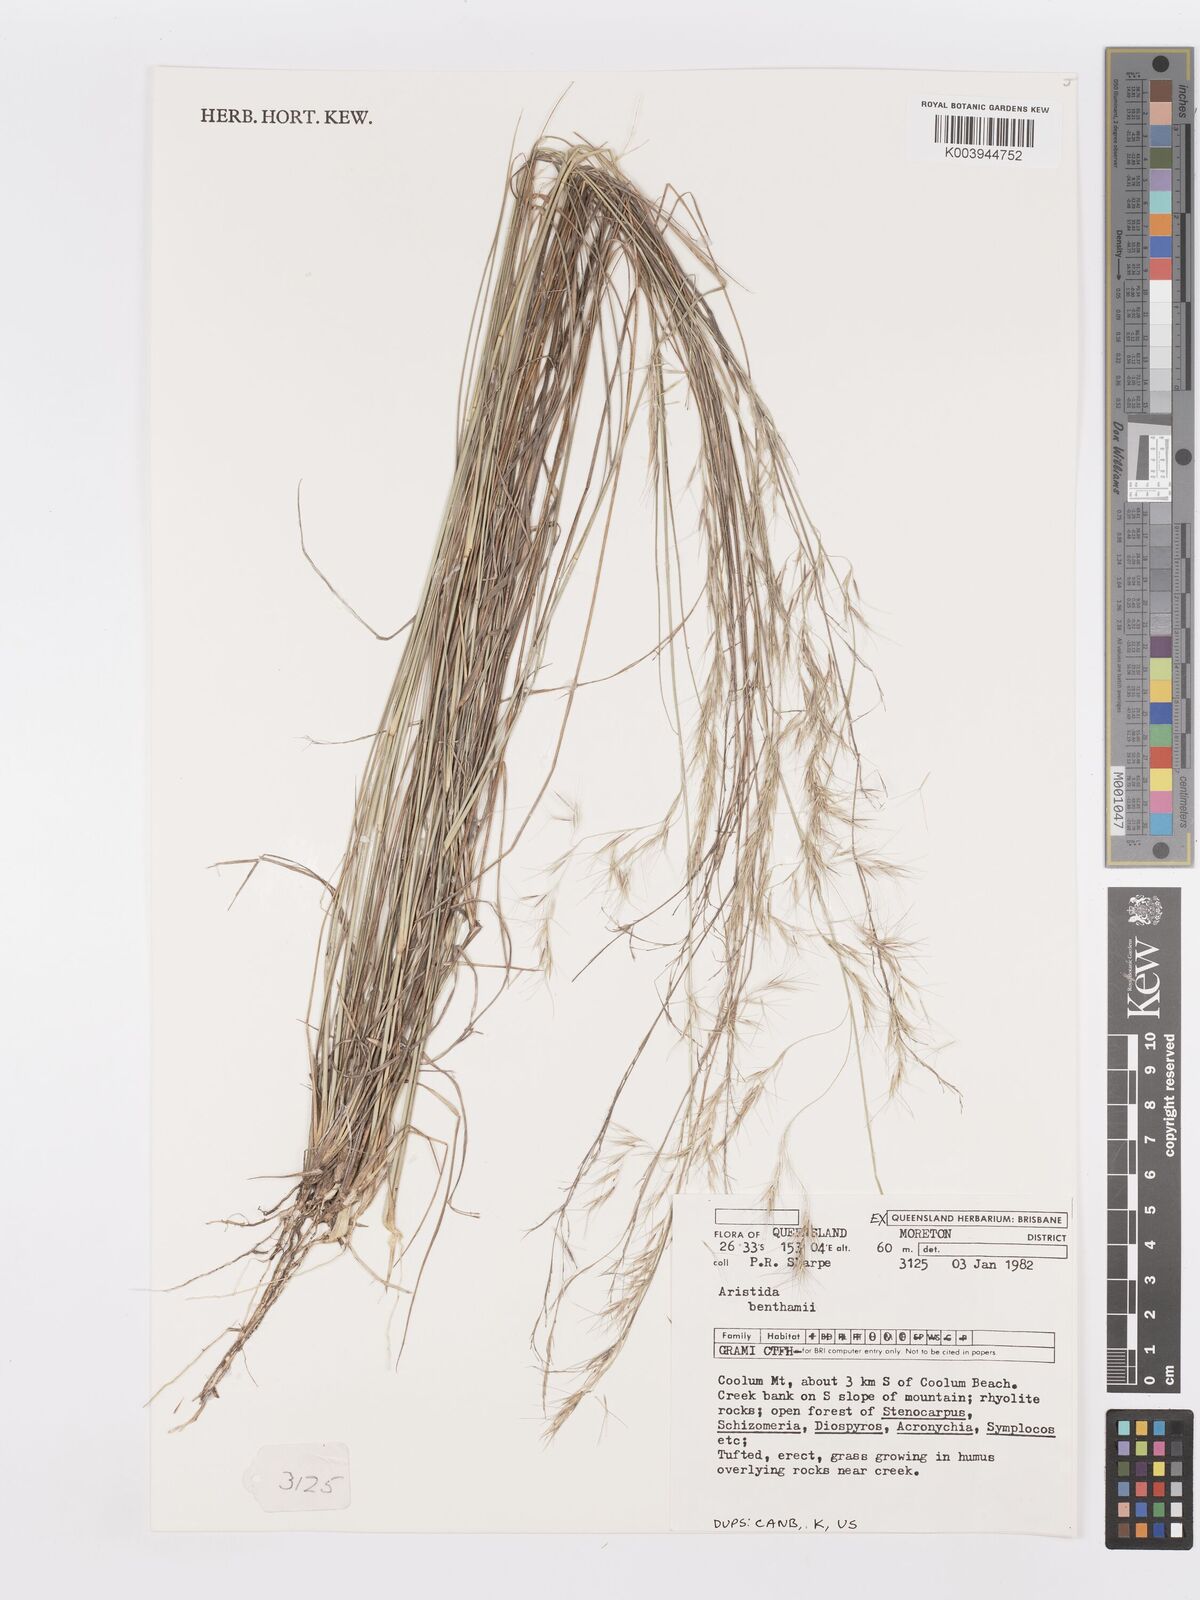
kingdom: Plantae
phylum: Tracheophyta
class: Liliopsida
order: Poales
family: Poaceae
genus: Aristida
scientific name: Aristida benthamii
